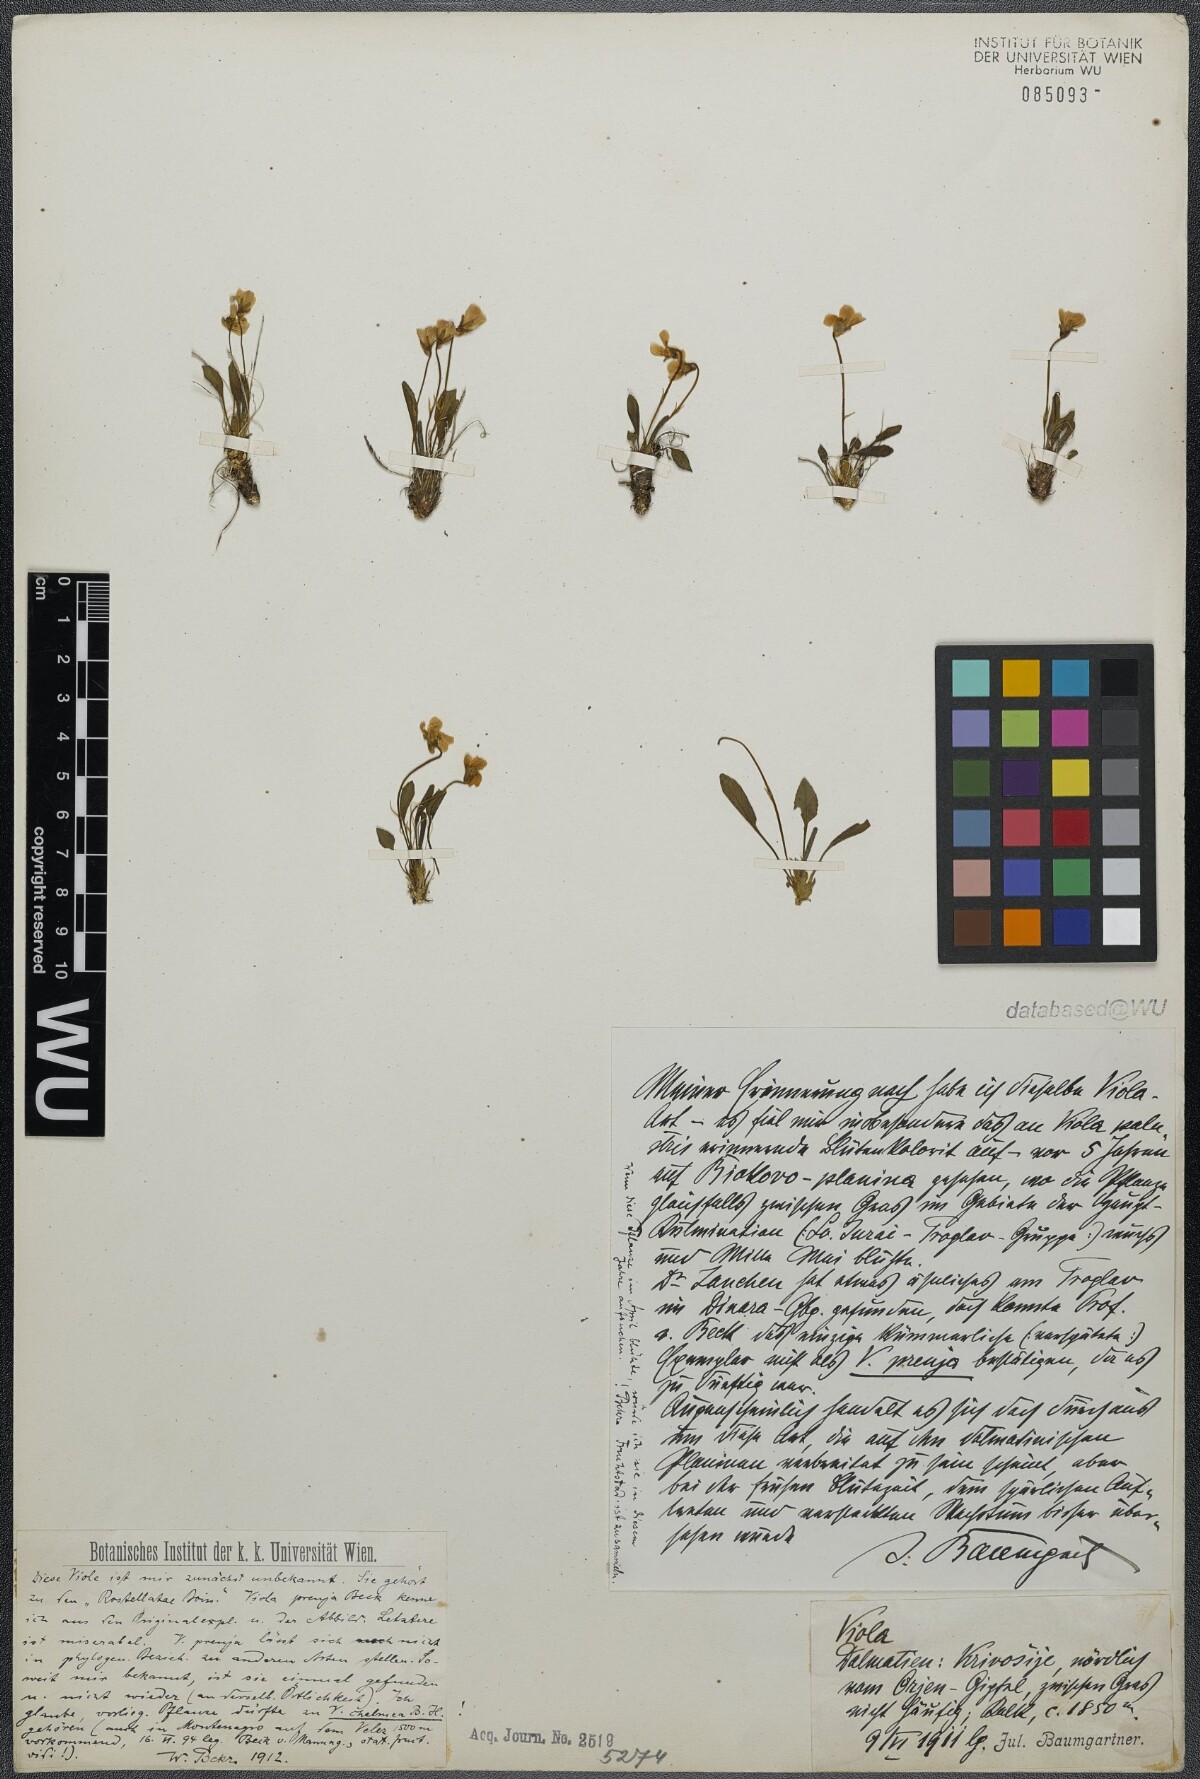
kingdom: Plantae
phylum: Tracheophyta
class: Magnoliopsida
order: Malpighiales
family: Violaceae
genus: Viola
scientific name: Viola chelmea
